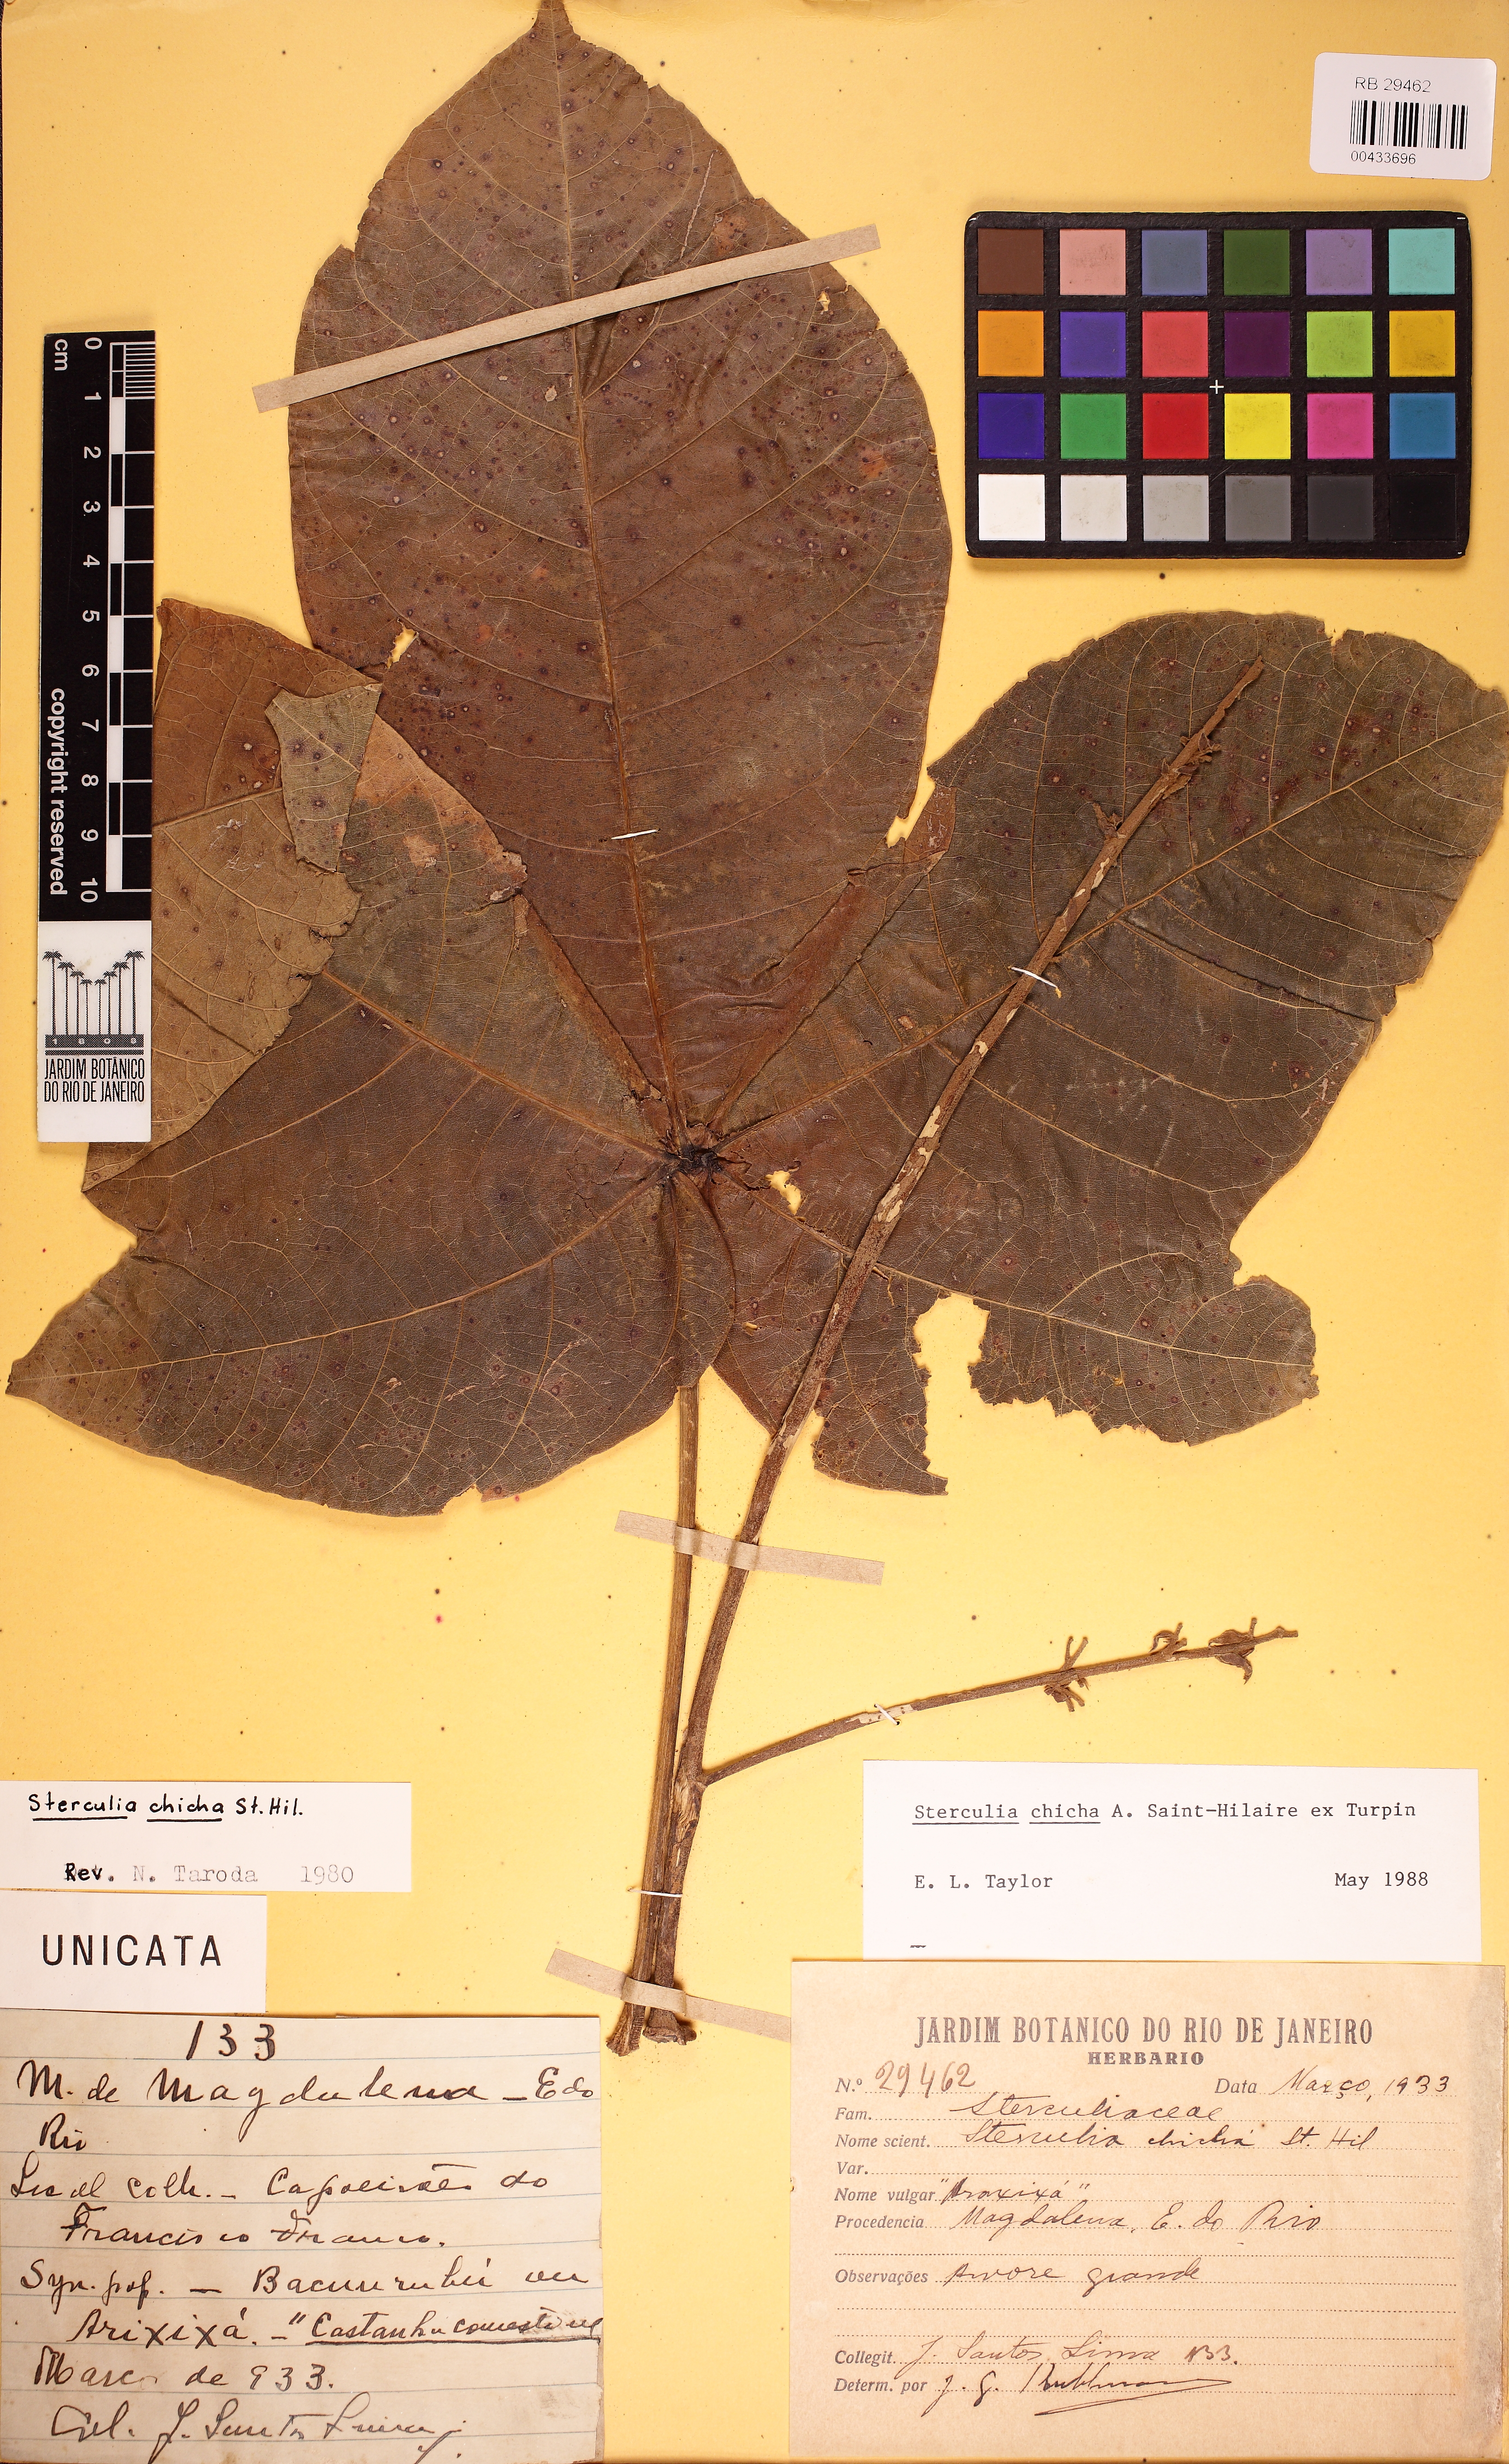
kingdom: Plantae
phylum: Tracheophyta
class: Magnoliopsida
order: Malvales
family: Malvaceae
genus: Sterculia
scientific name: Sterculia apetala
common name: Panama tree
